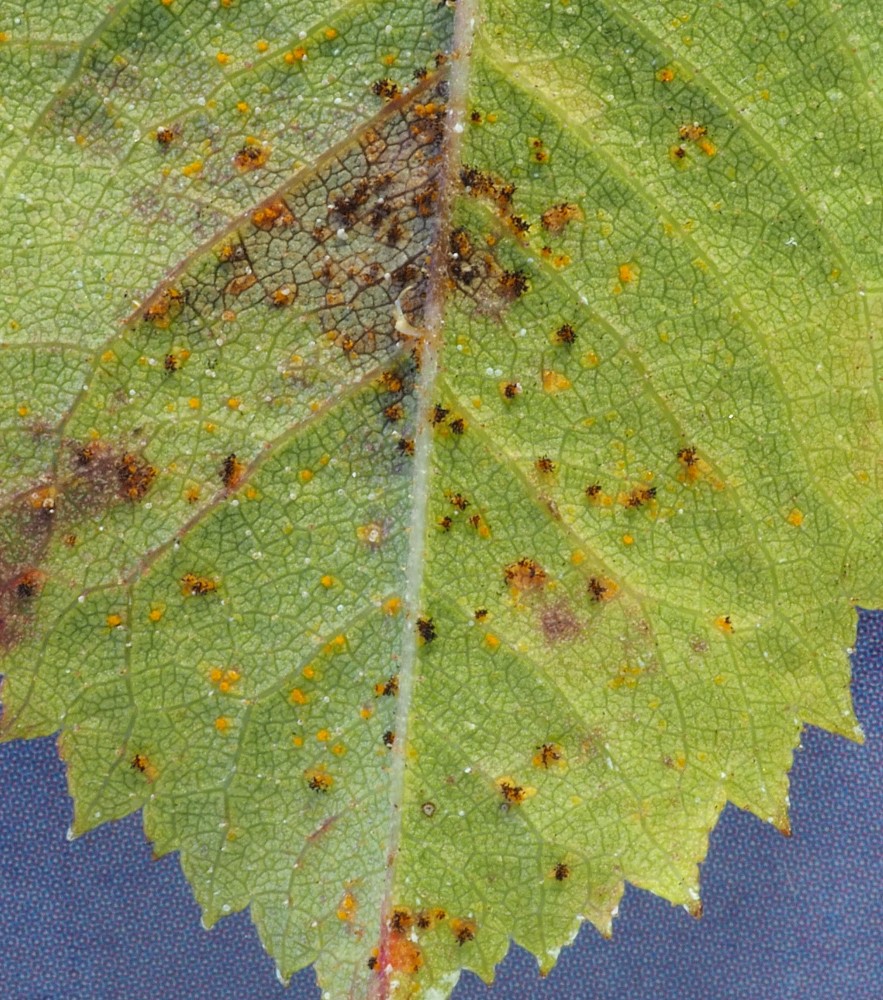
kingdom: Fungi
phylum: Basidiomycota
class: Pucciniomycetes
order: Pucciniales
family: Phragmidiaceae
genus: Phragmidium
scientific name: Phragmidium mucronatum
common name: rose-flercellerust
